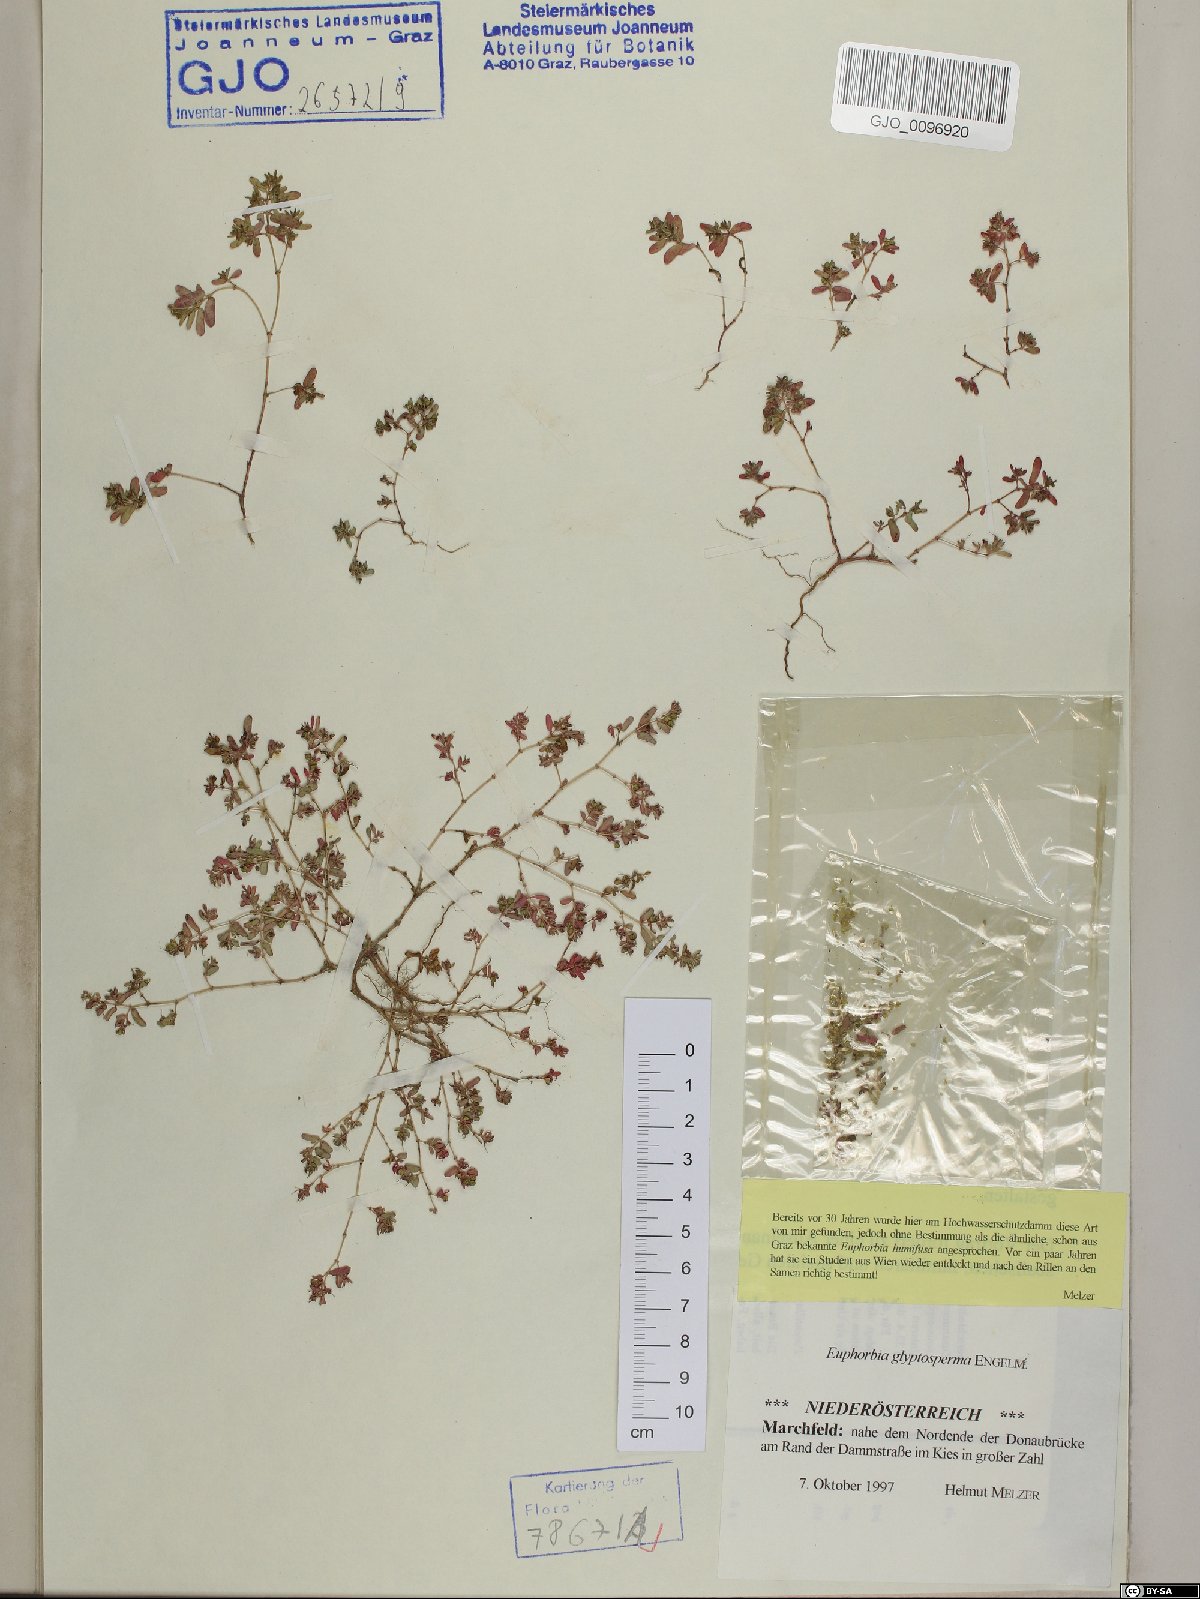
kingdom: Plantae
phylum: Tracheophyta
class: Magnoliopsida
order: Malpighiales
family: Euphorbiaceae
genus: Euphorbia
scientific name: Euphorbia glyptosperma
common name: Corrugate-seeded spurge
